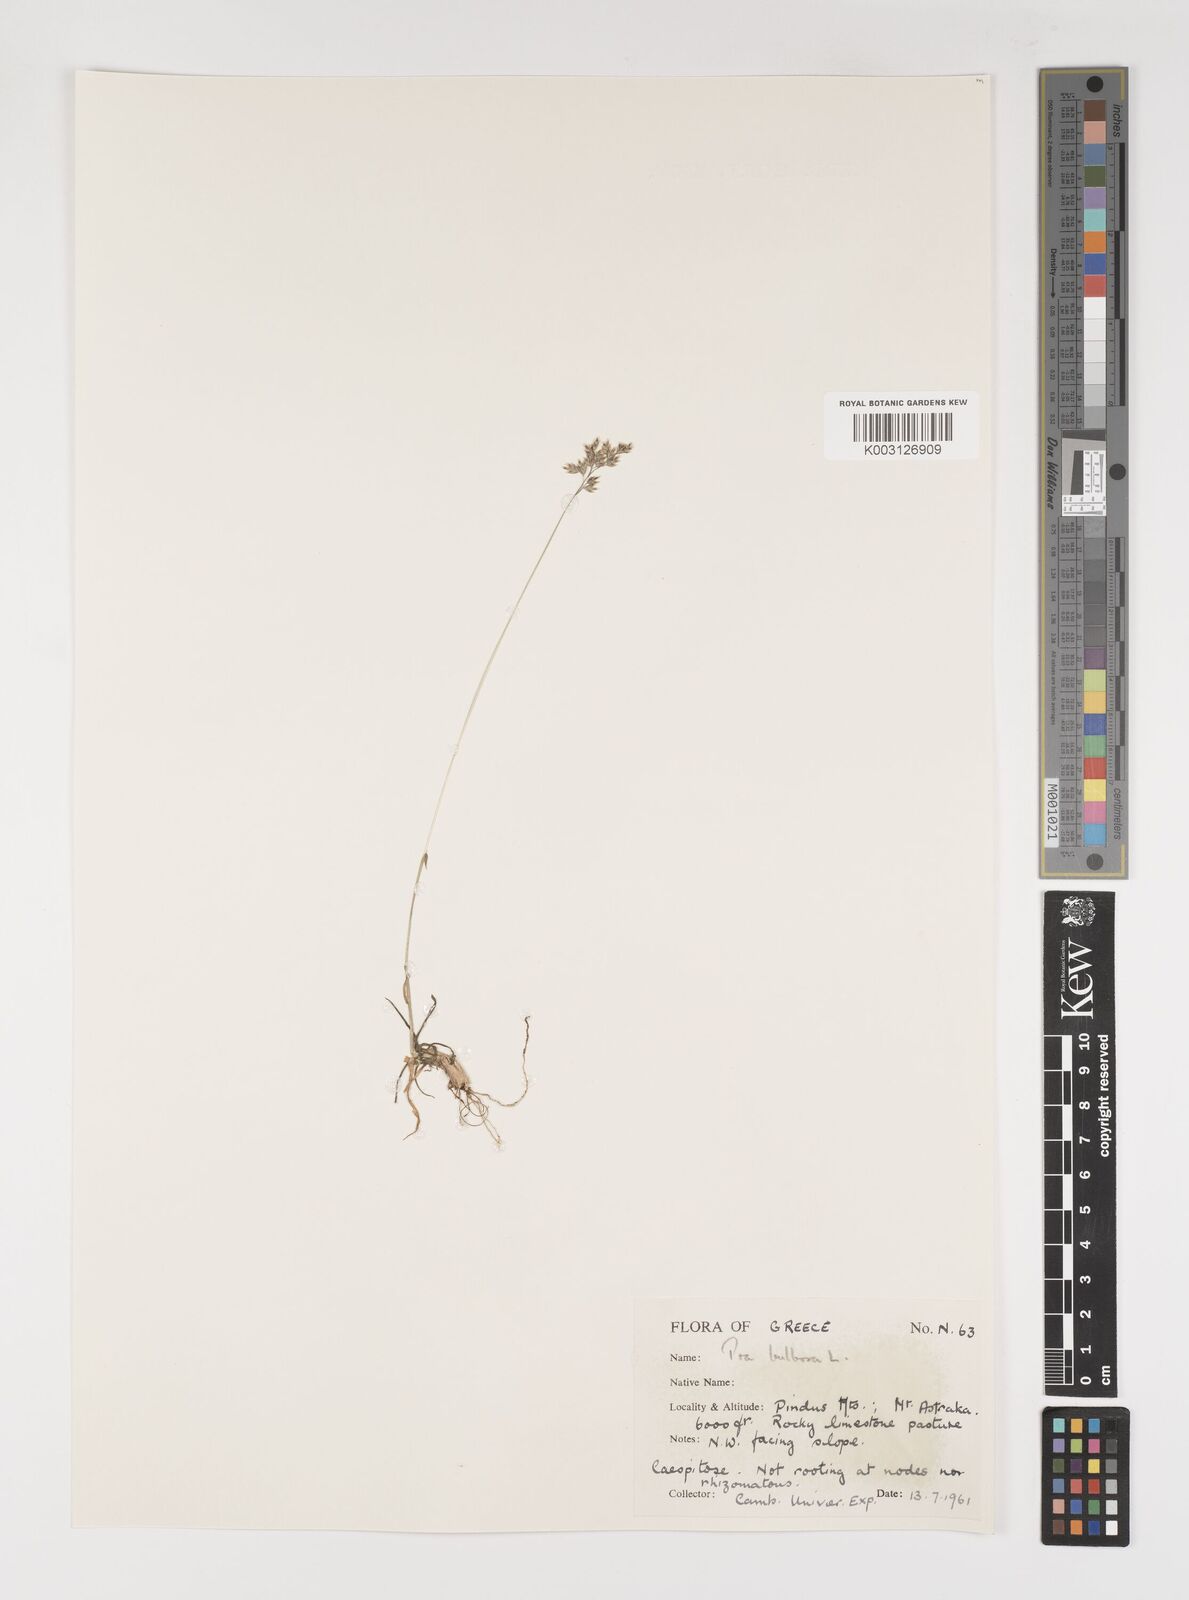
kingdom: Plantae
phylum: Tracheophyta
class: Liliopsida
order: Poales
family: Poaceae
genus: Poa
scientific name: Poa bulbosa
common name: Bulbous bluegrass
